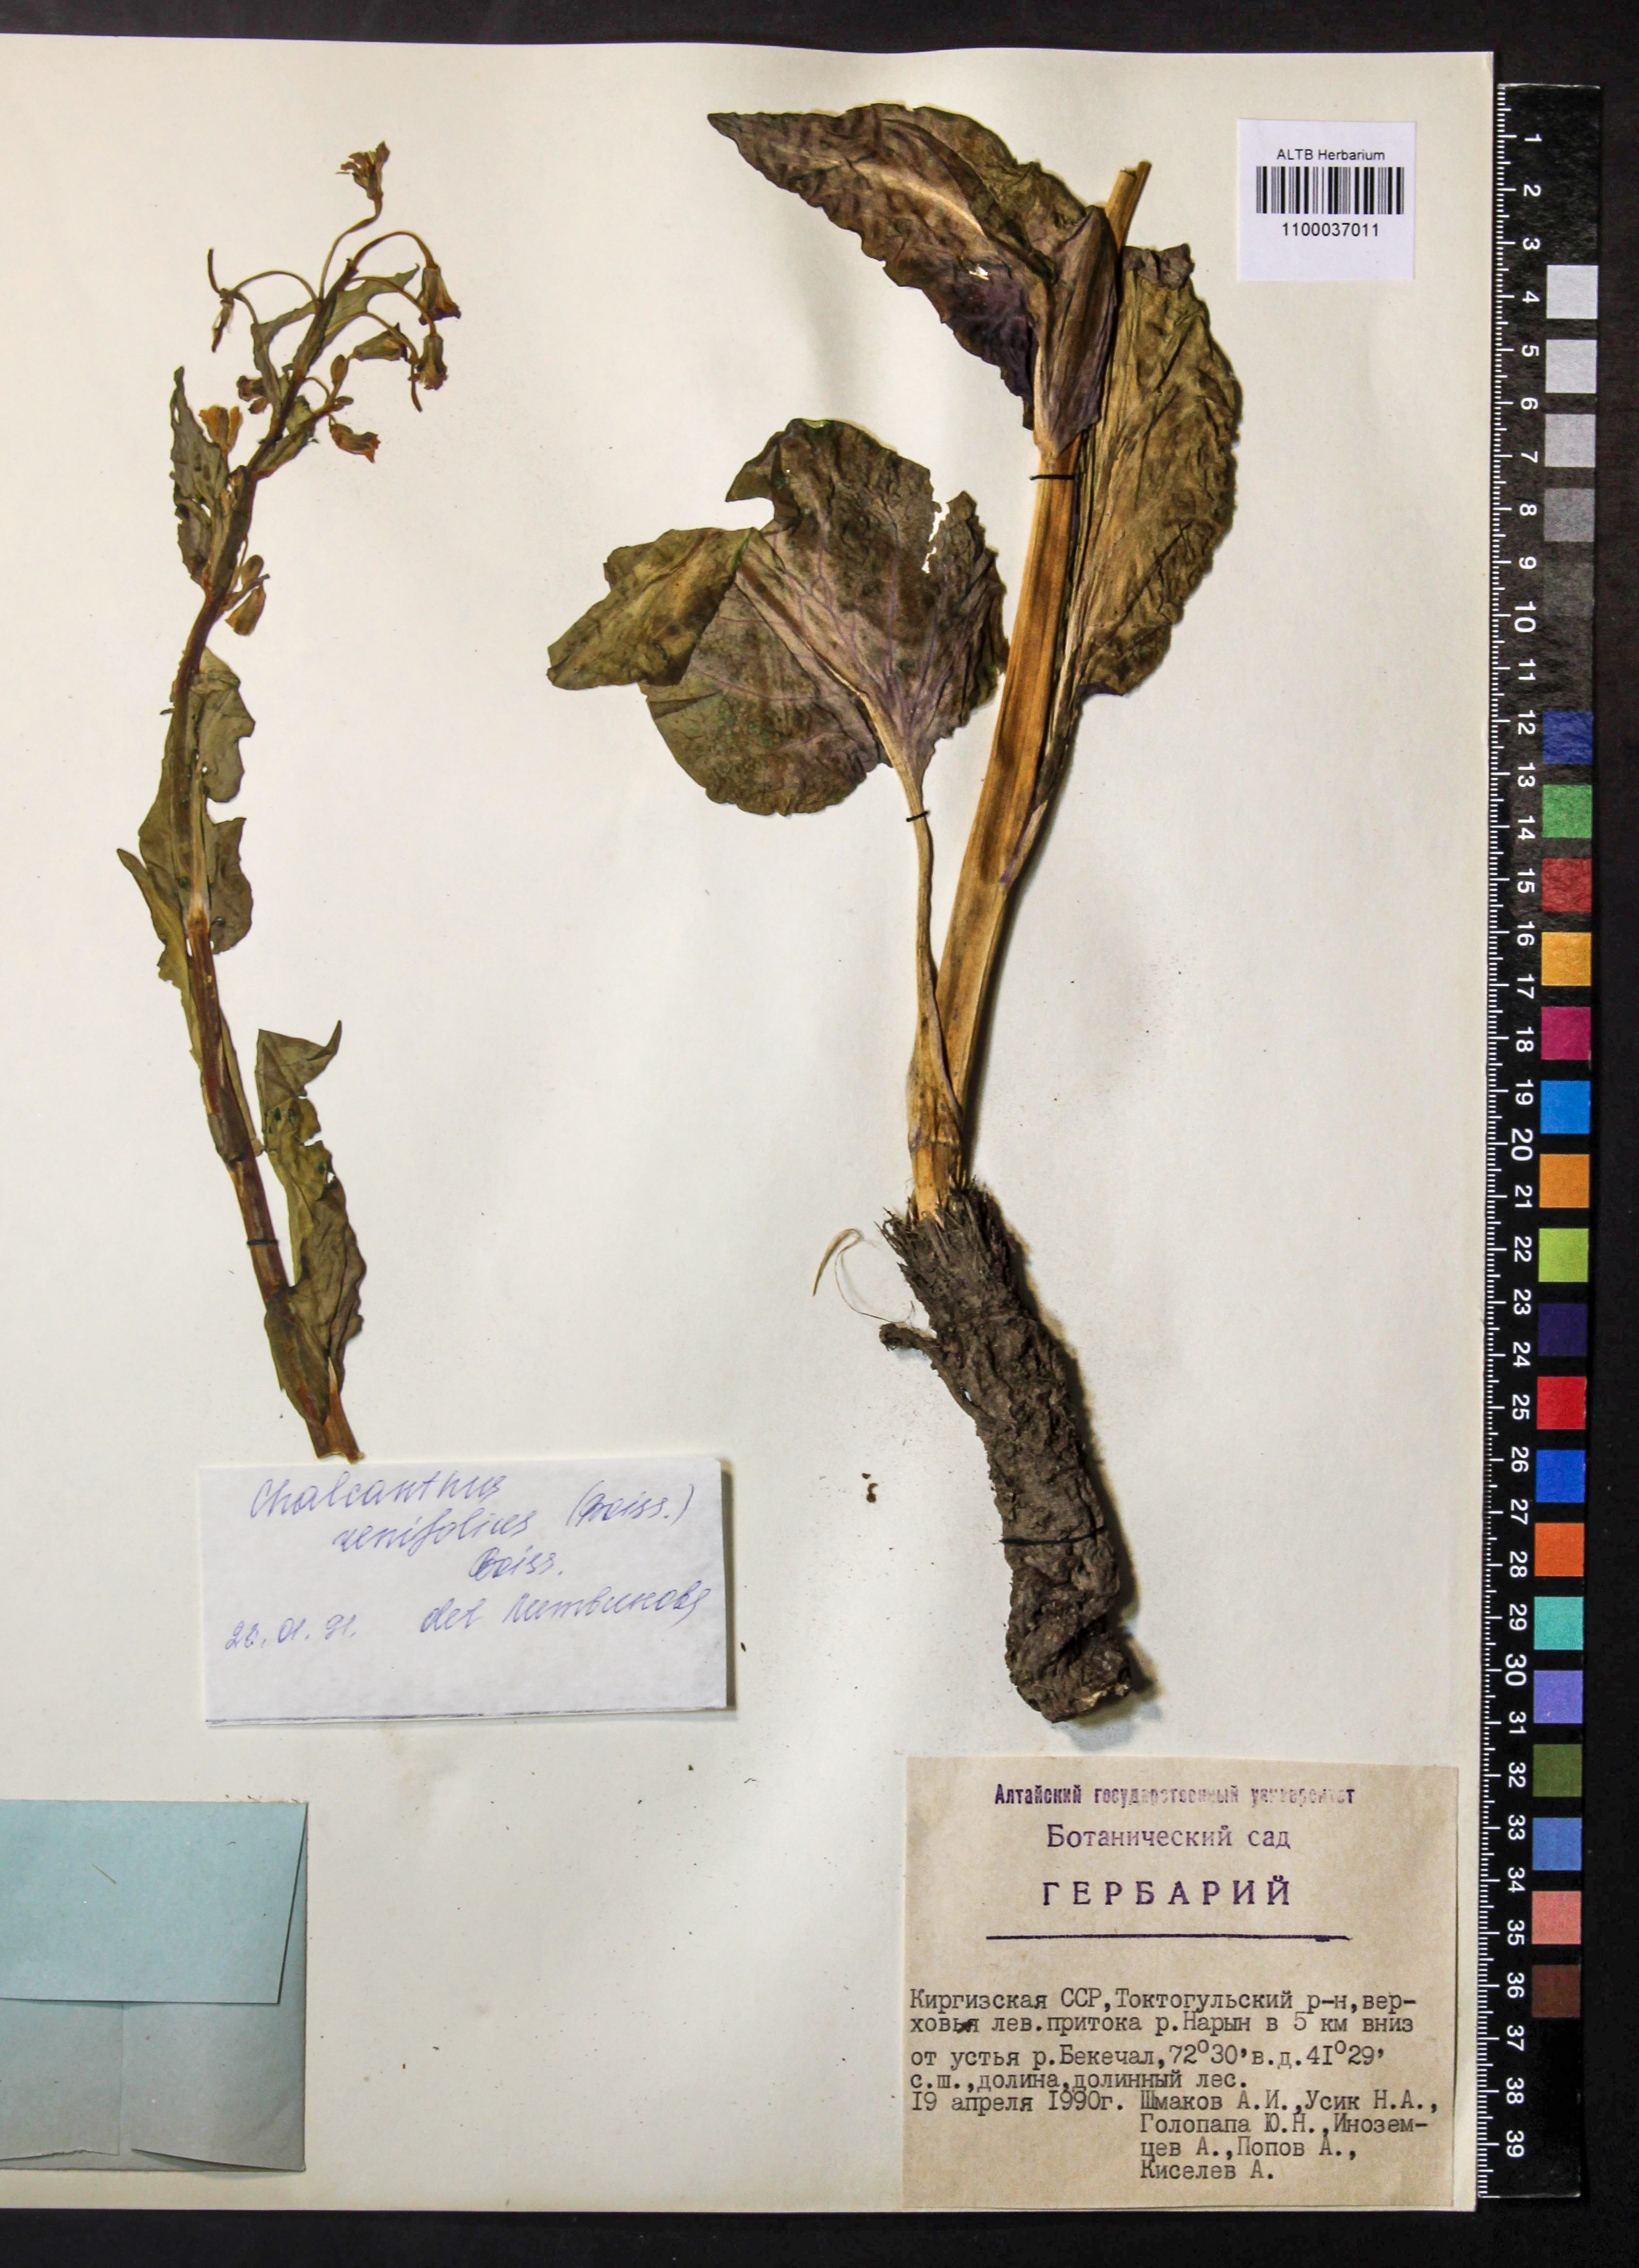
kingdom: Plantae
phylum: Tracheophyta
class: Magnoliopsida
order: Brassicales
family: Brassicaceae
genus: Eutrema
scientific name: Eutrema renifolium
